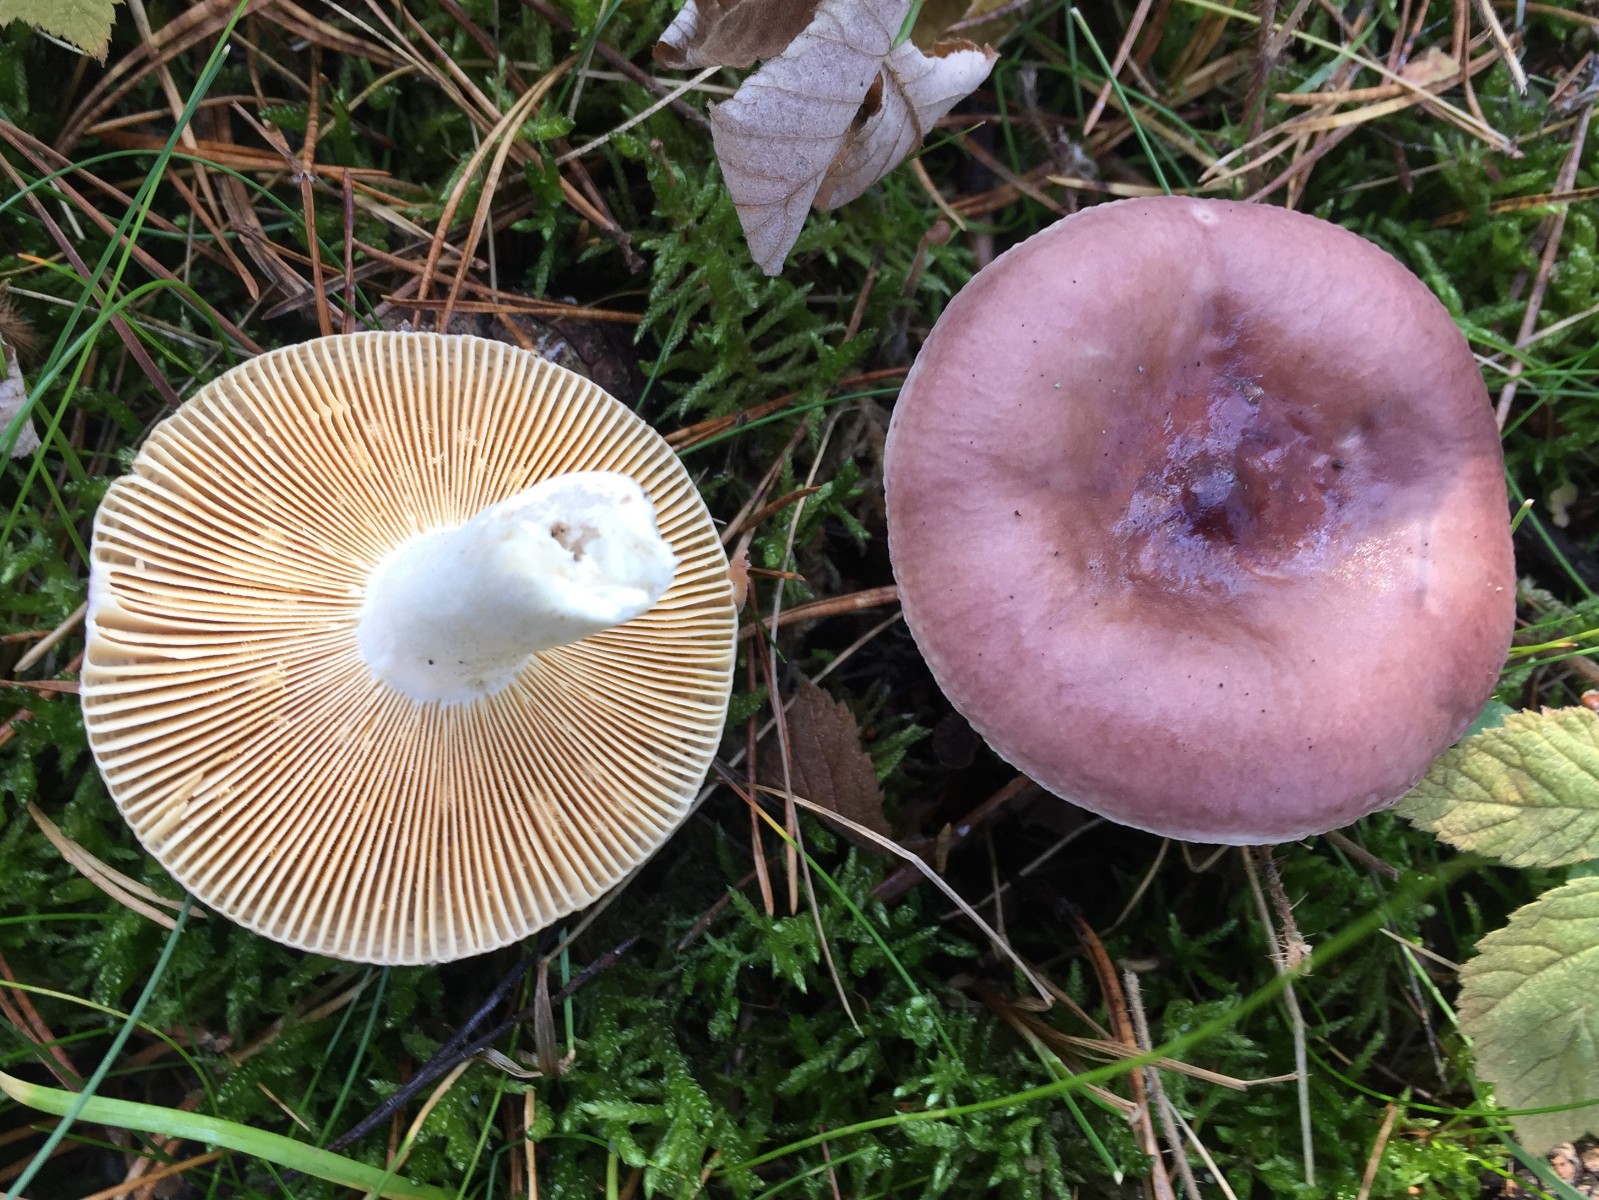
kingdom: Fungi
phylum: Basidiomycota
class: Agaricomycetes
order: Russulales
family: Russulaceae
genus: Russula
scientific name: Russula caerulea
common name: puklet skørhat
